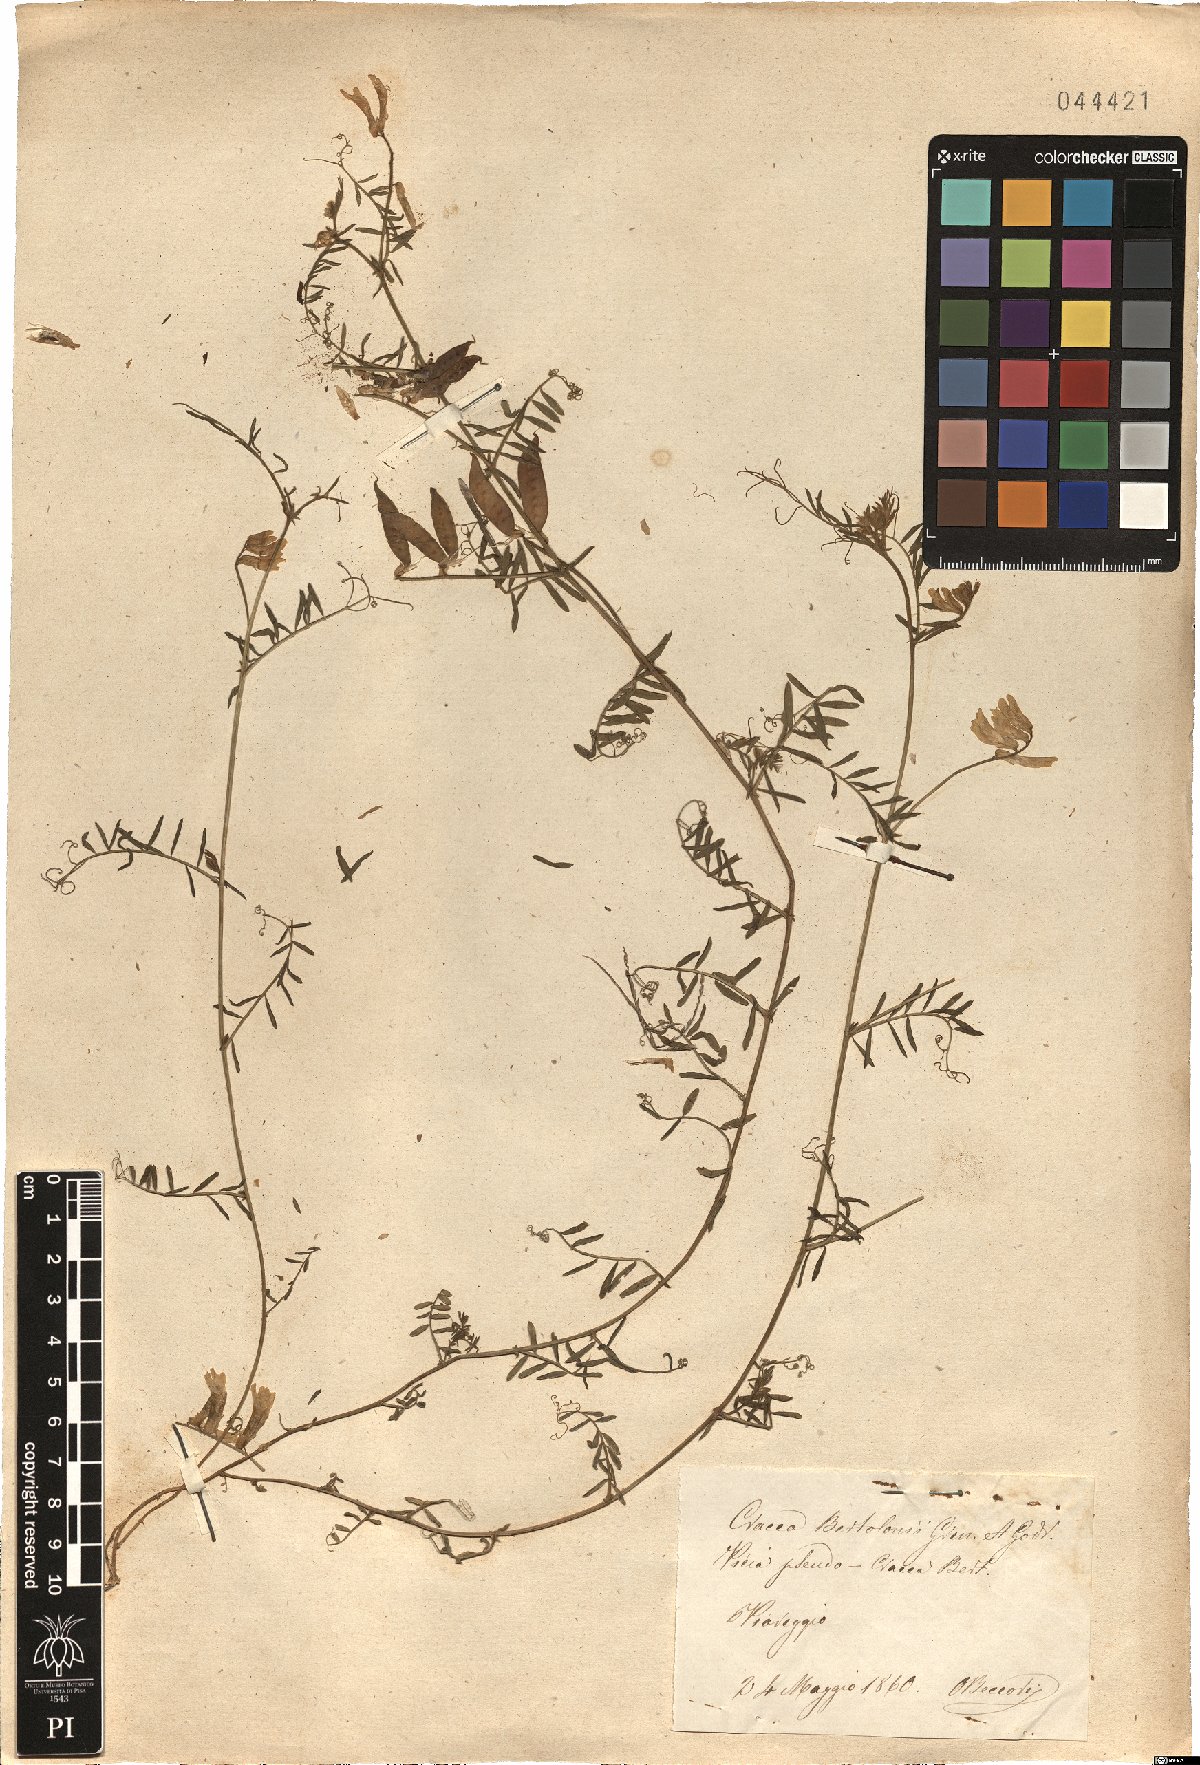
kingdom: Plantae
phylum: Tracheophyta
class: Magnoliopsida
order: Fabales
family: Fabaceae
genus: Vicia
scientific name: Vicia villosa
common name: Fodder vetch
